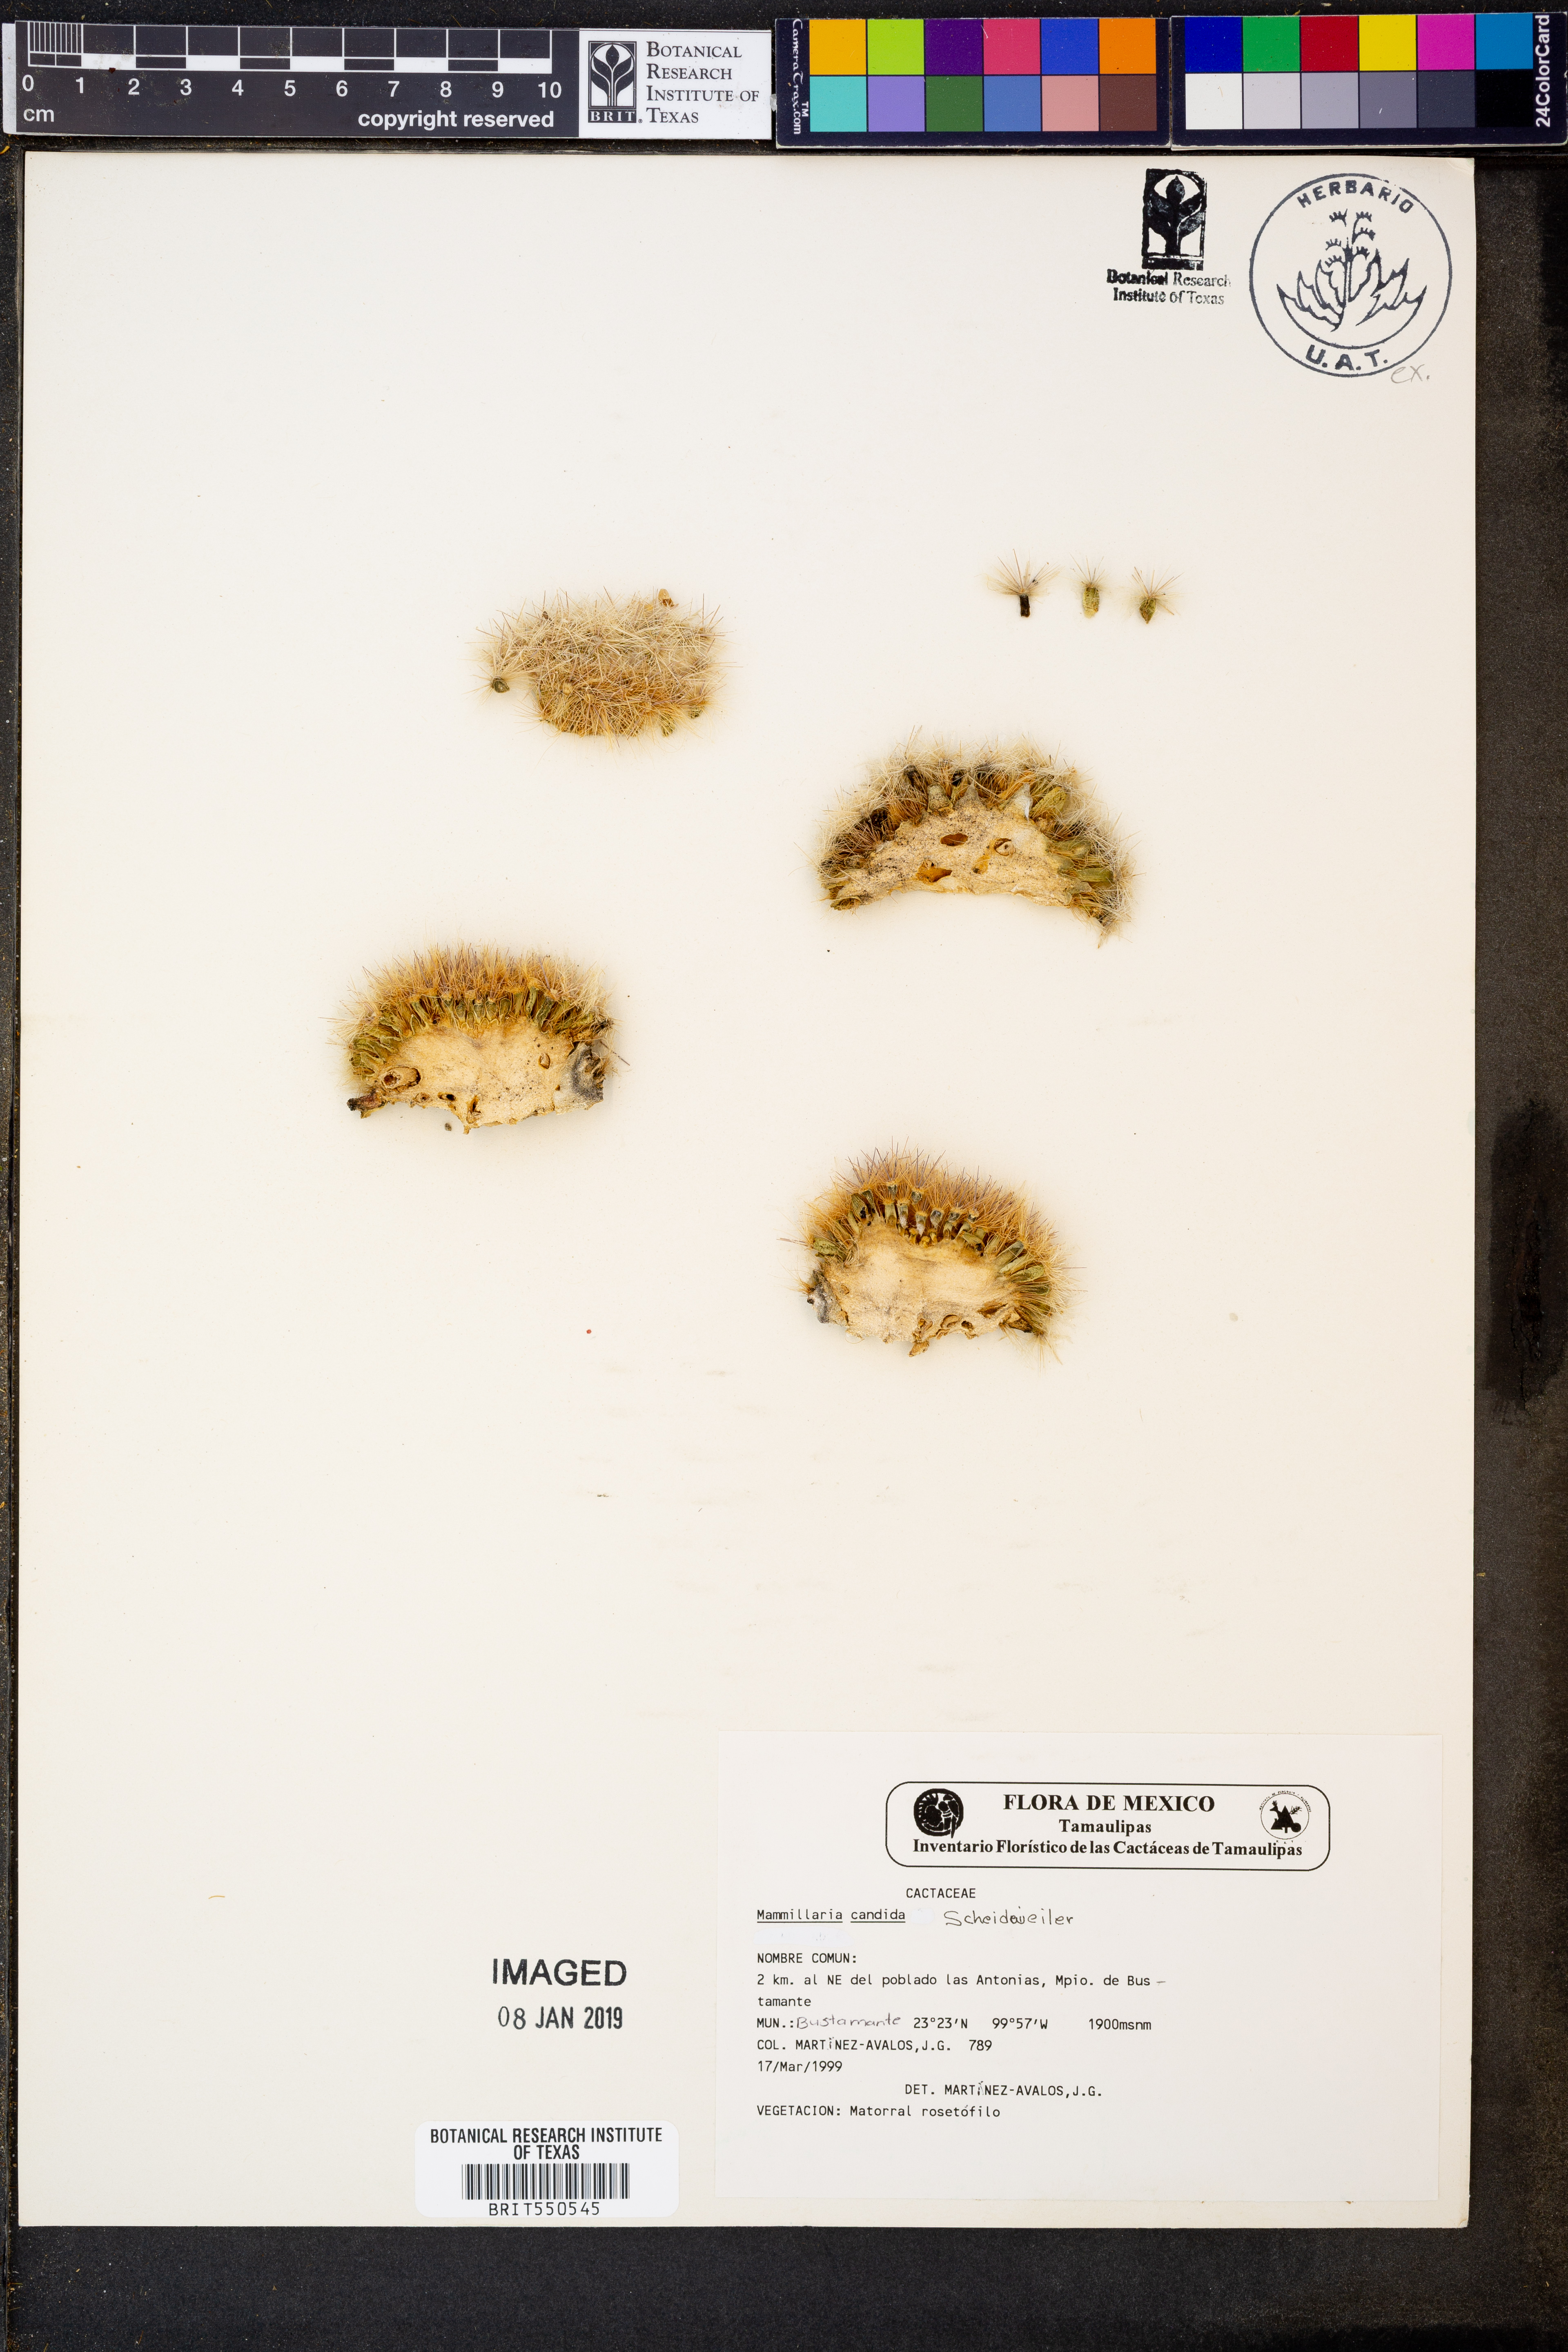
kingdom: Plantae
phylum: Tracheophyta
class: Magnoliopsida
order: Caryophyllales
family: Cactaceae
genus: Mammillaria
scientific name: Mammillaria candida
